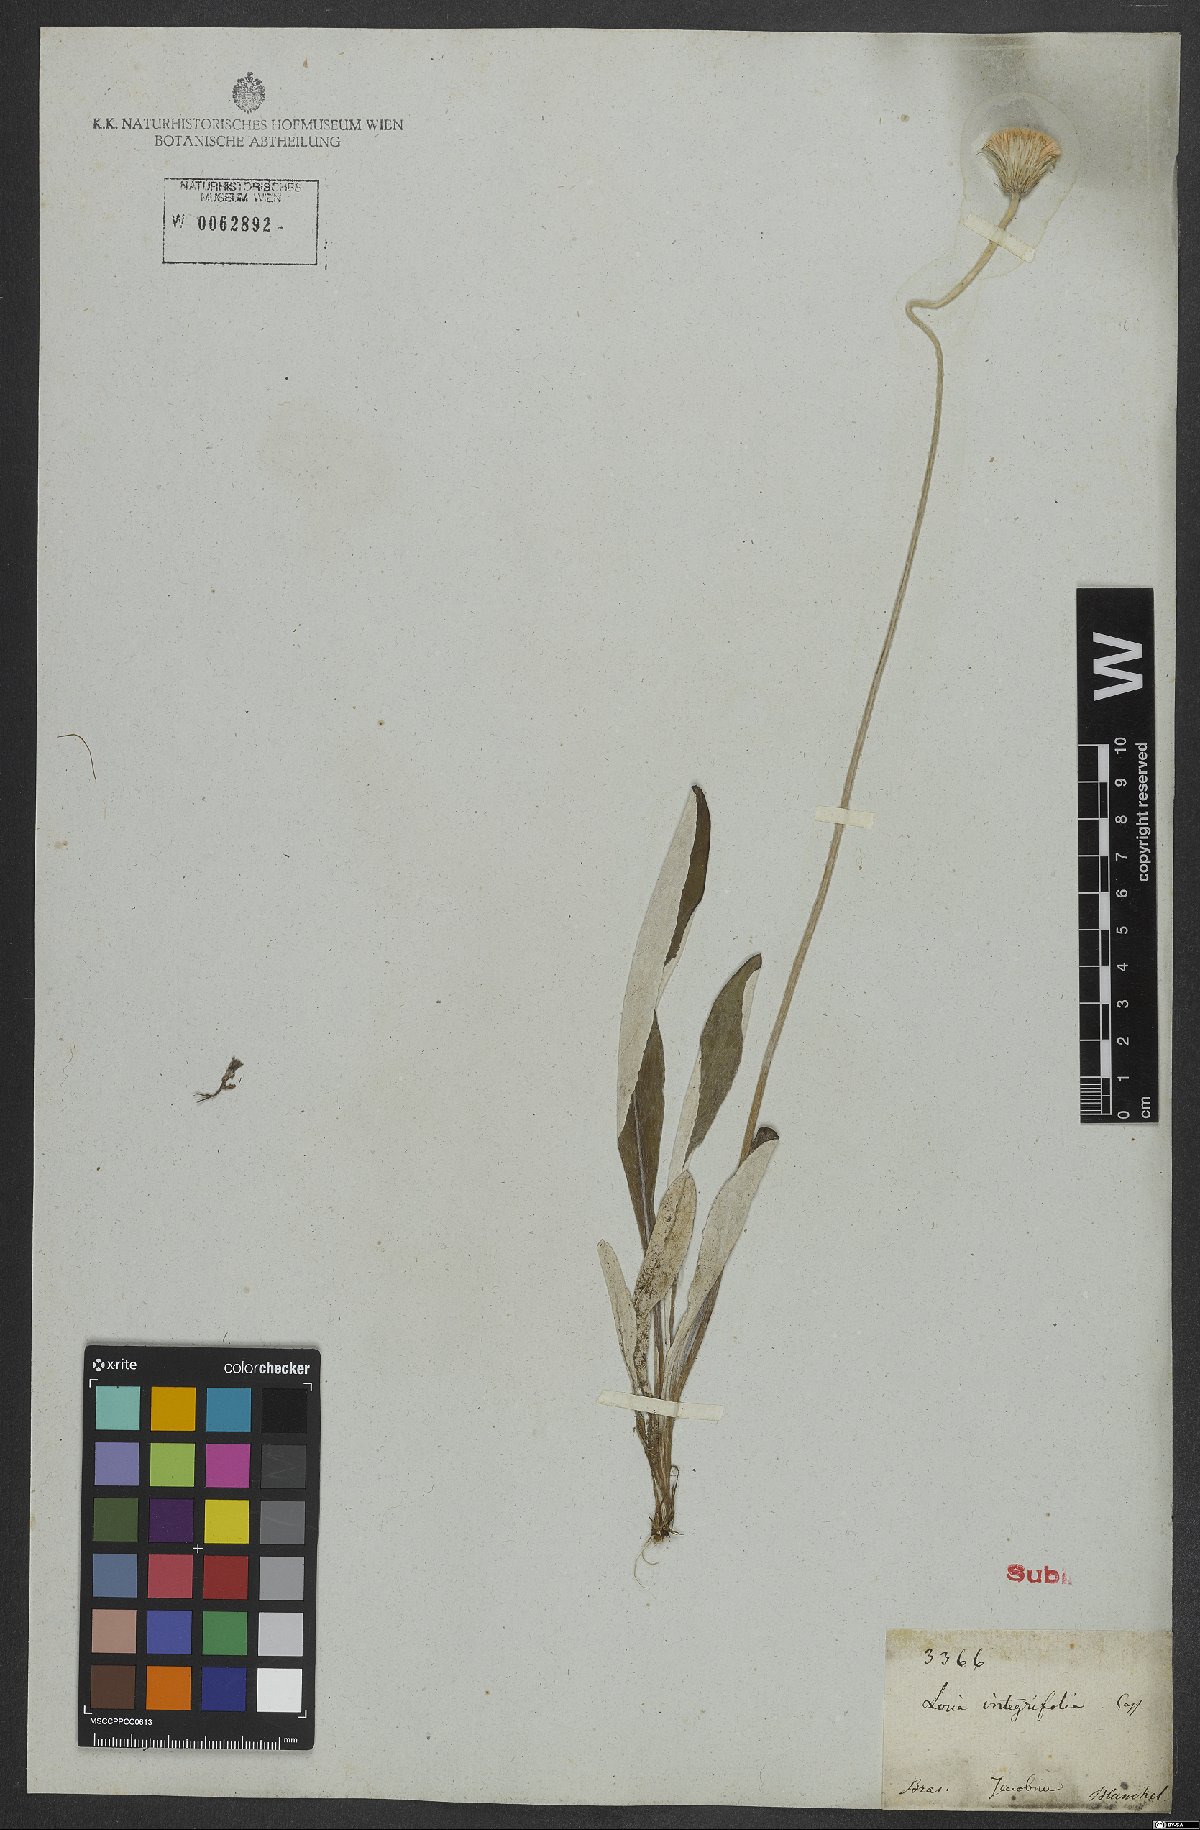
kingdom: Plantae
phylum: Tracheophyta
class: Magnoliopsida
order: Asterales
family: Asteraceae
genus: Chaptalia
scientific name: Chaptalia integerrima
